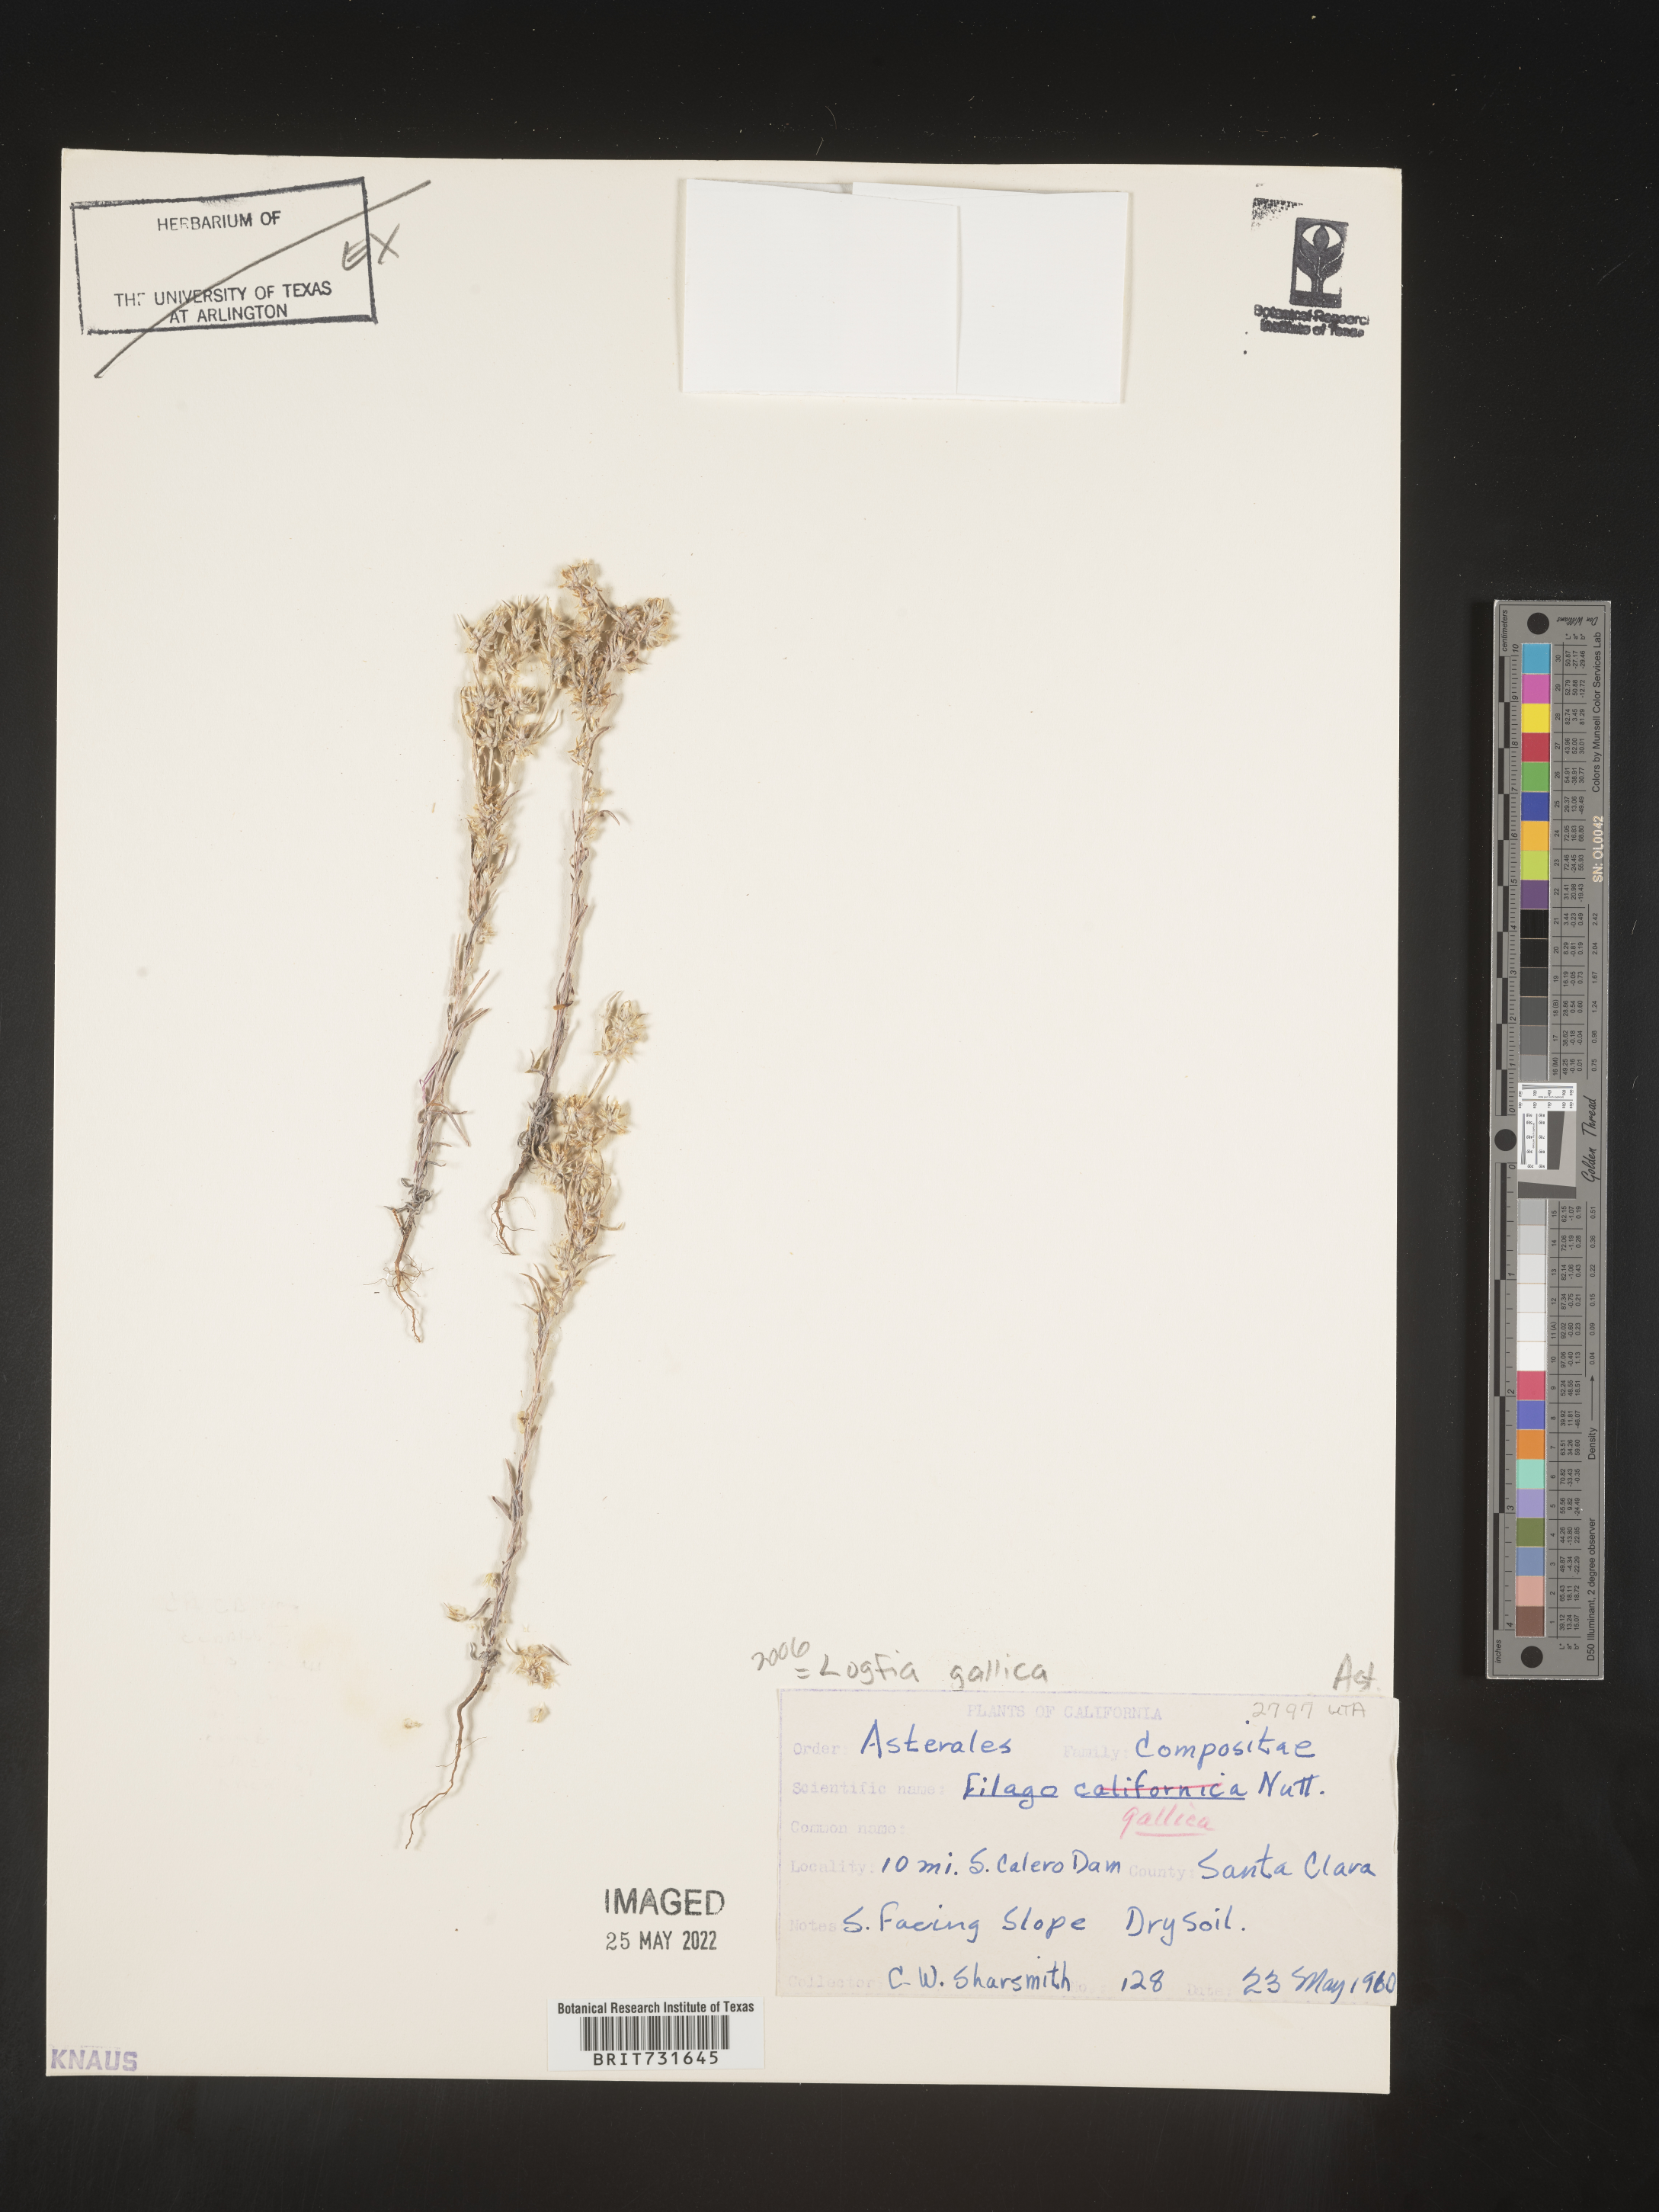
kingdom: Plantae
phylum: Tracheophyta
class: Magnoliopsida
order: Asterales
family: Asteraceae
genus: Logfia
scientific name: Logfia
